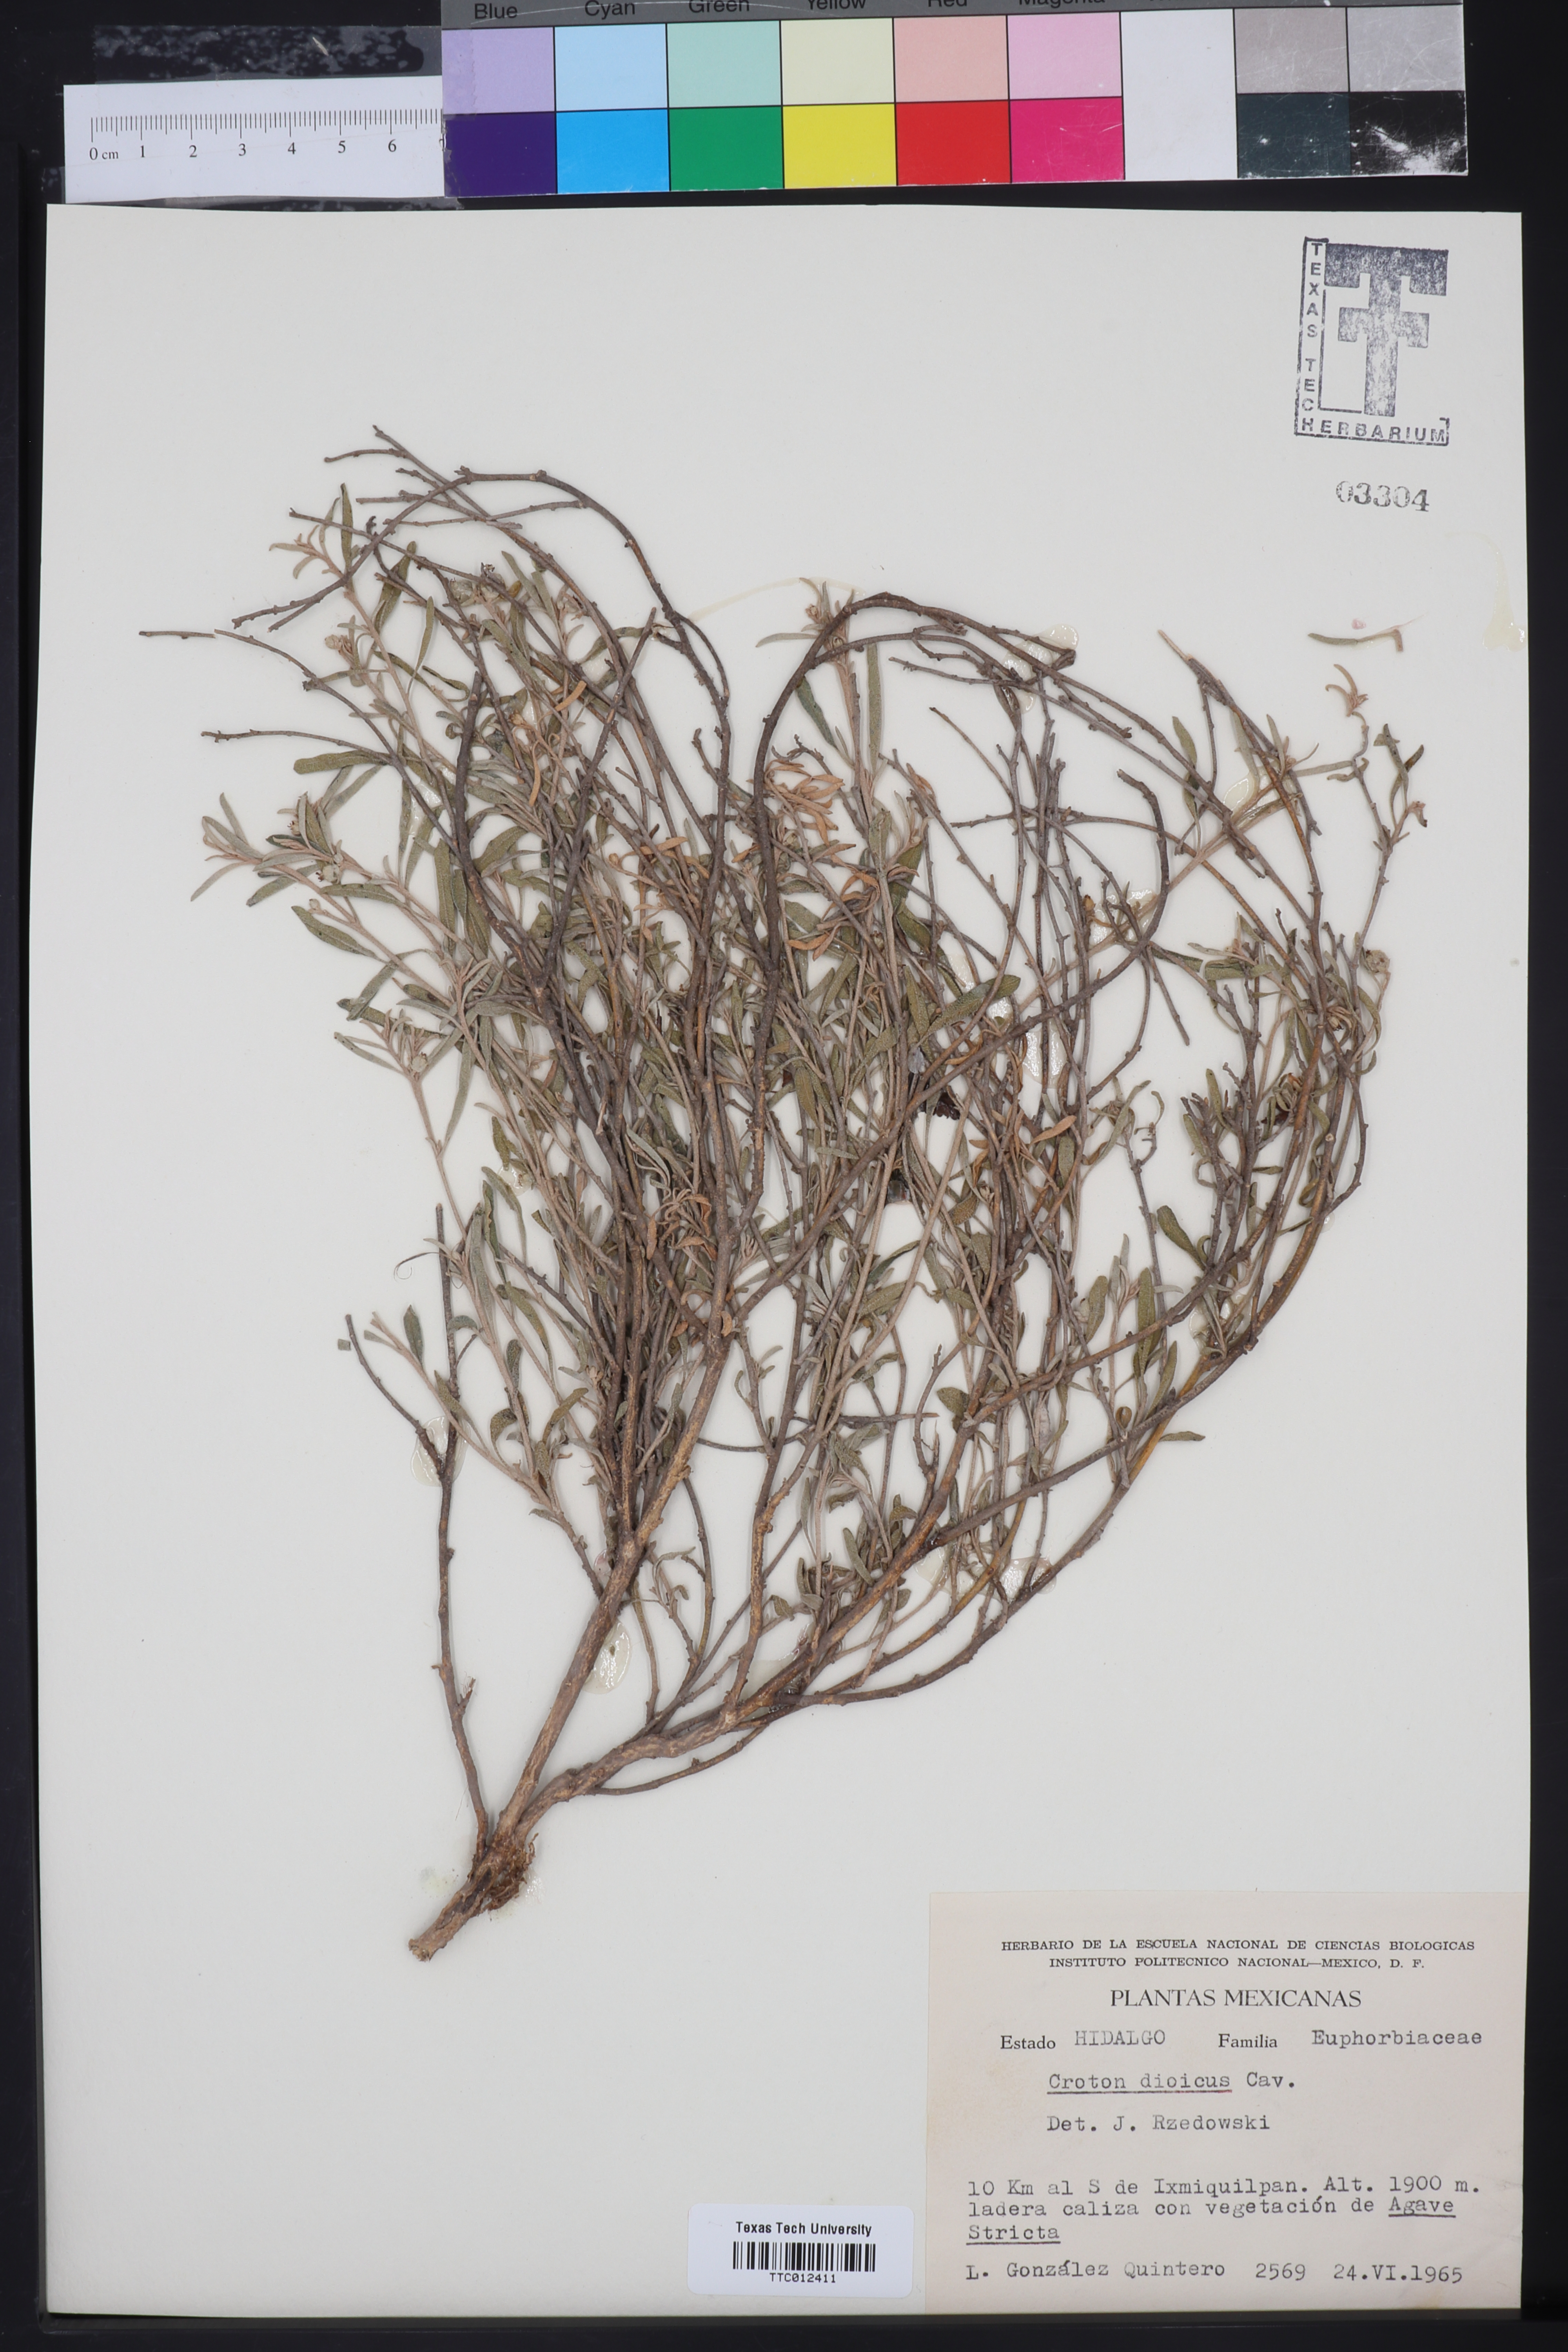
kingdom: Plantae
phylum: Tracheophyta
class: Magnoliopsida
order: Malpighiales
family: Euphorbiaceae
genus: Croton
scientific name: Croton dioicus
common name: Grassland croton
